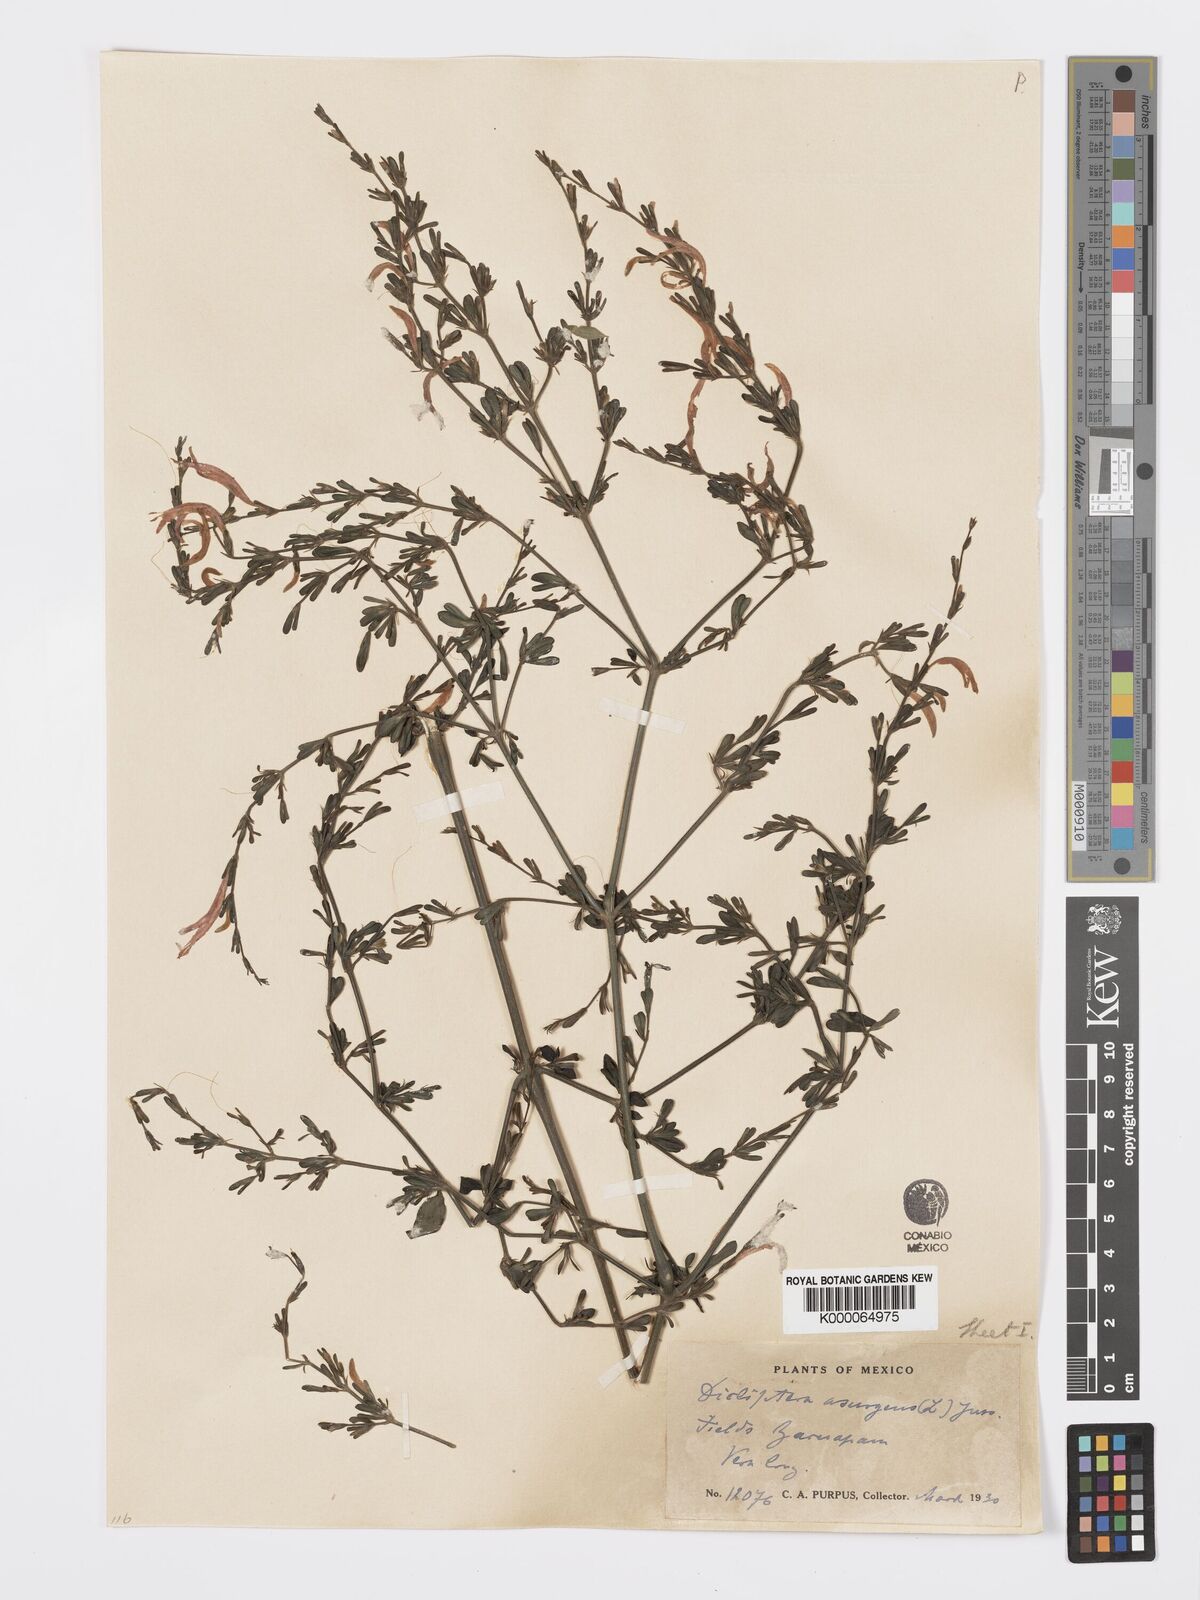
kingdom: Plantae
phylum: Tracheophyta
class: Magnoliopsida
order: Lamiales
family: Acanthaceae
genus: Dicliptera
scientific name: Dicliptera sexangularis
